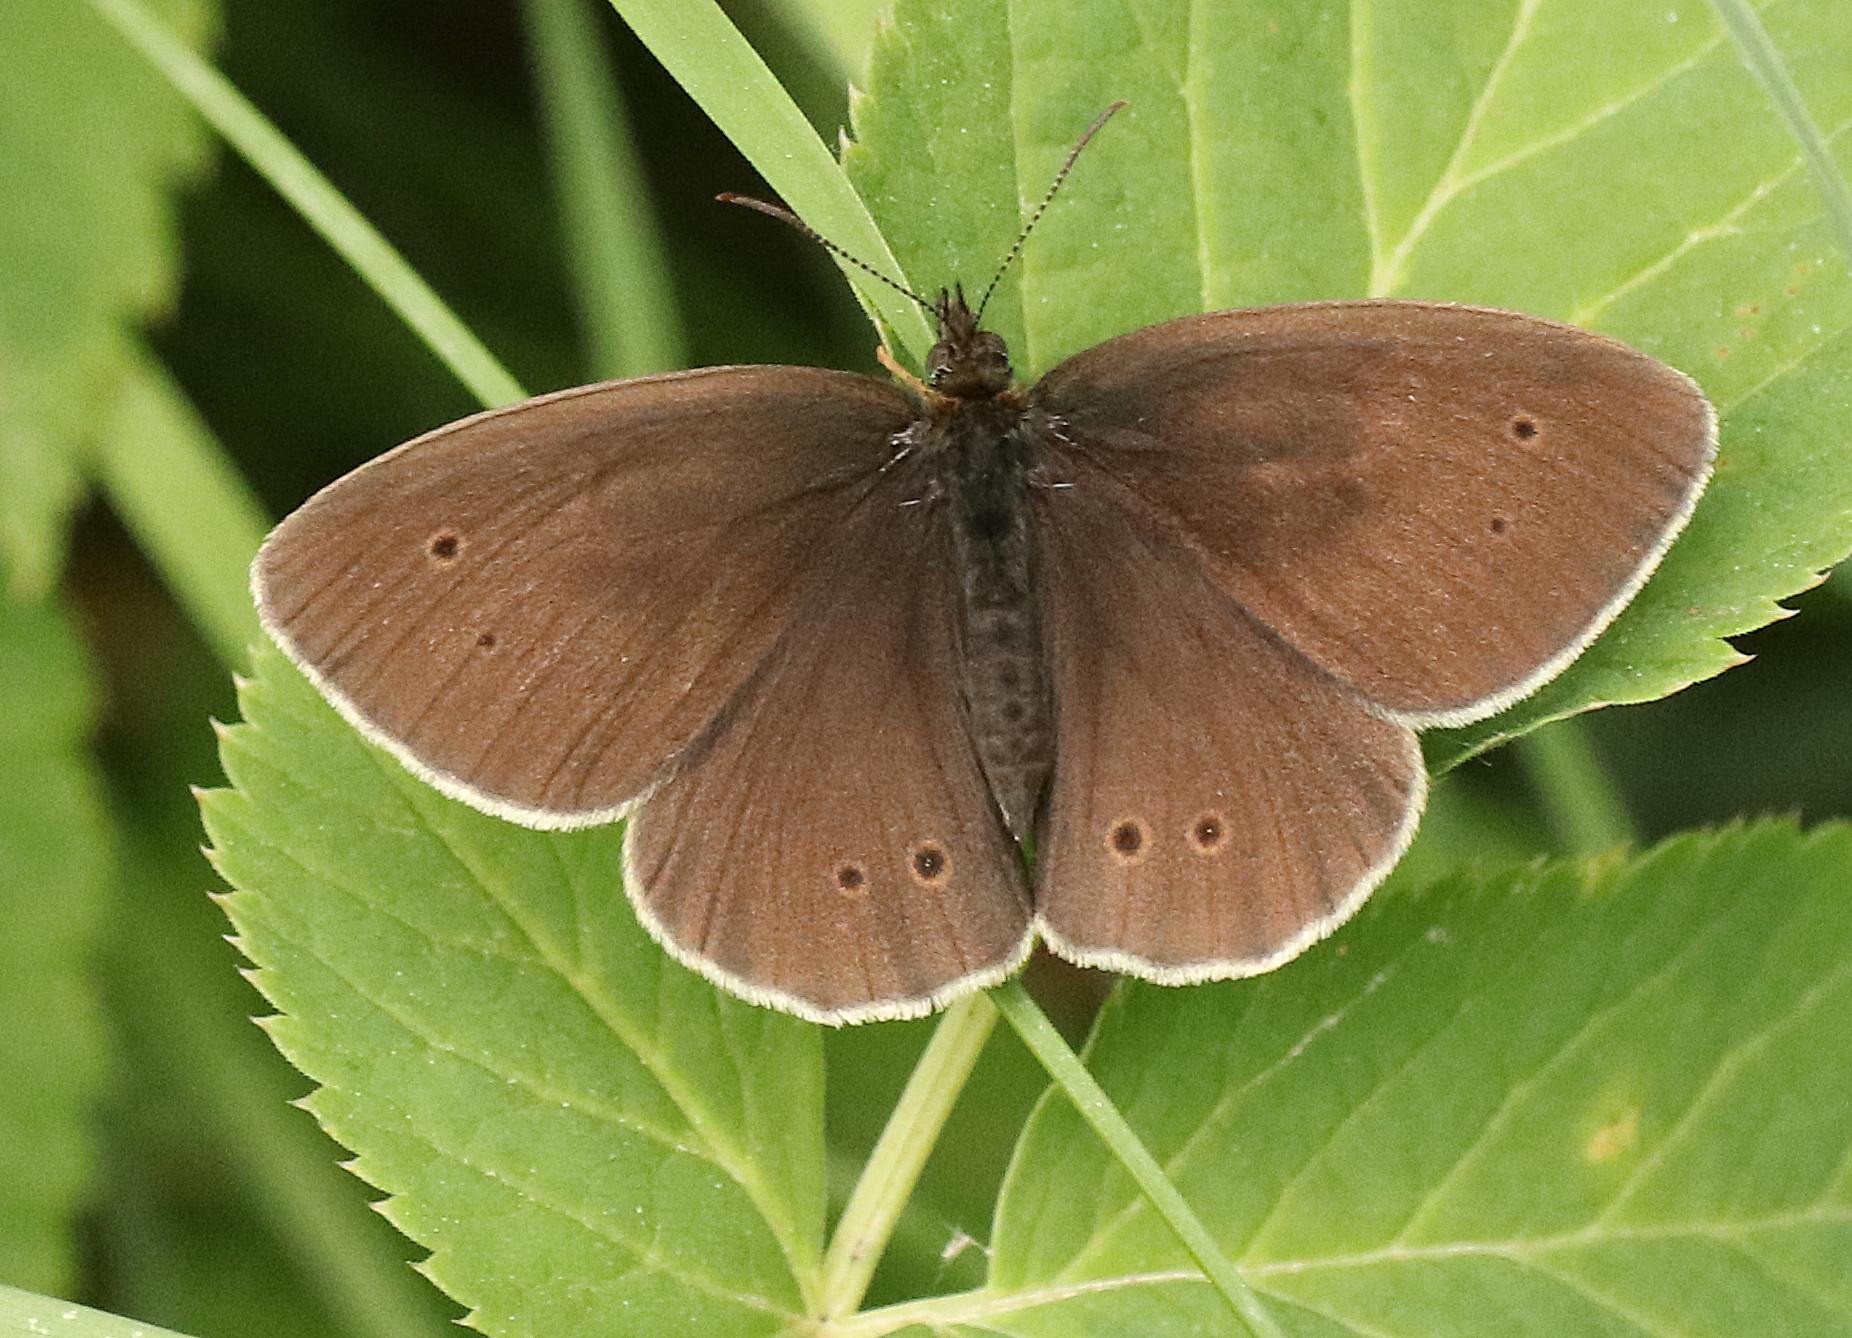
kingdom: Animalia
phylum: Arthropoda
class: Insecta
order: Lepidoptera
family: Nymphalidae
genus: Aphantopus
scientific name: Aphantopus hyperantus
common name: Engrandøje
